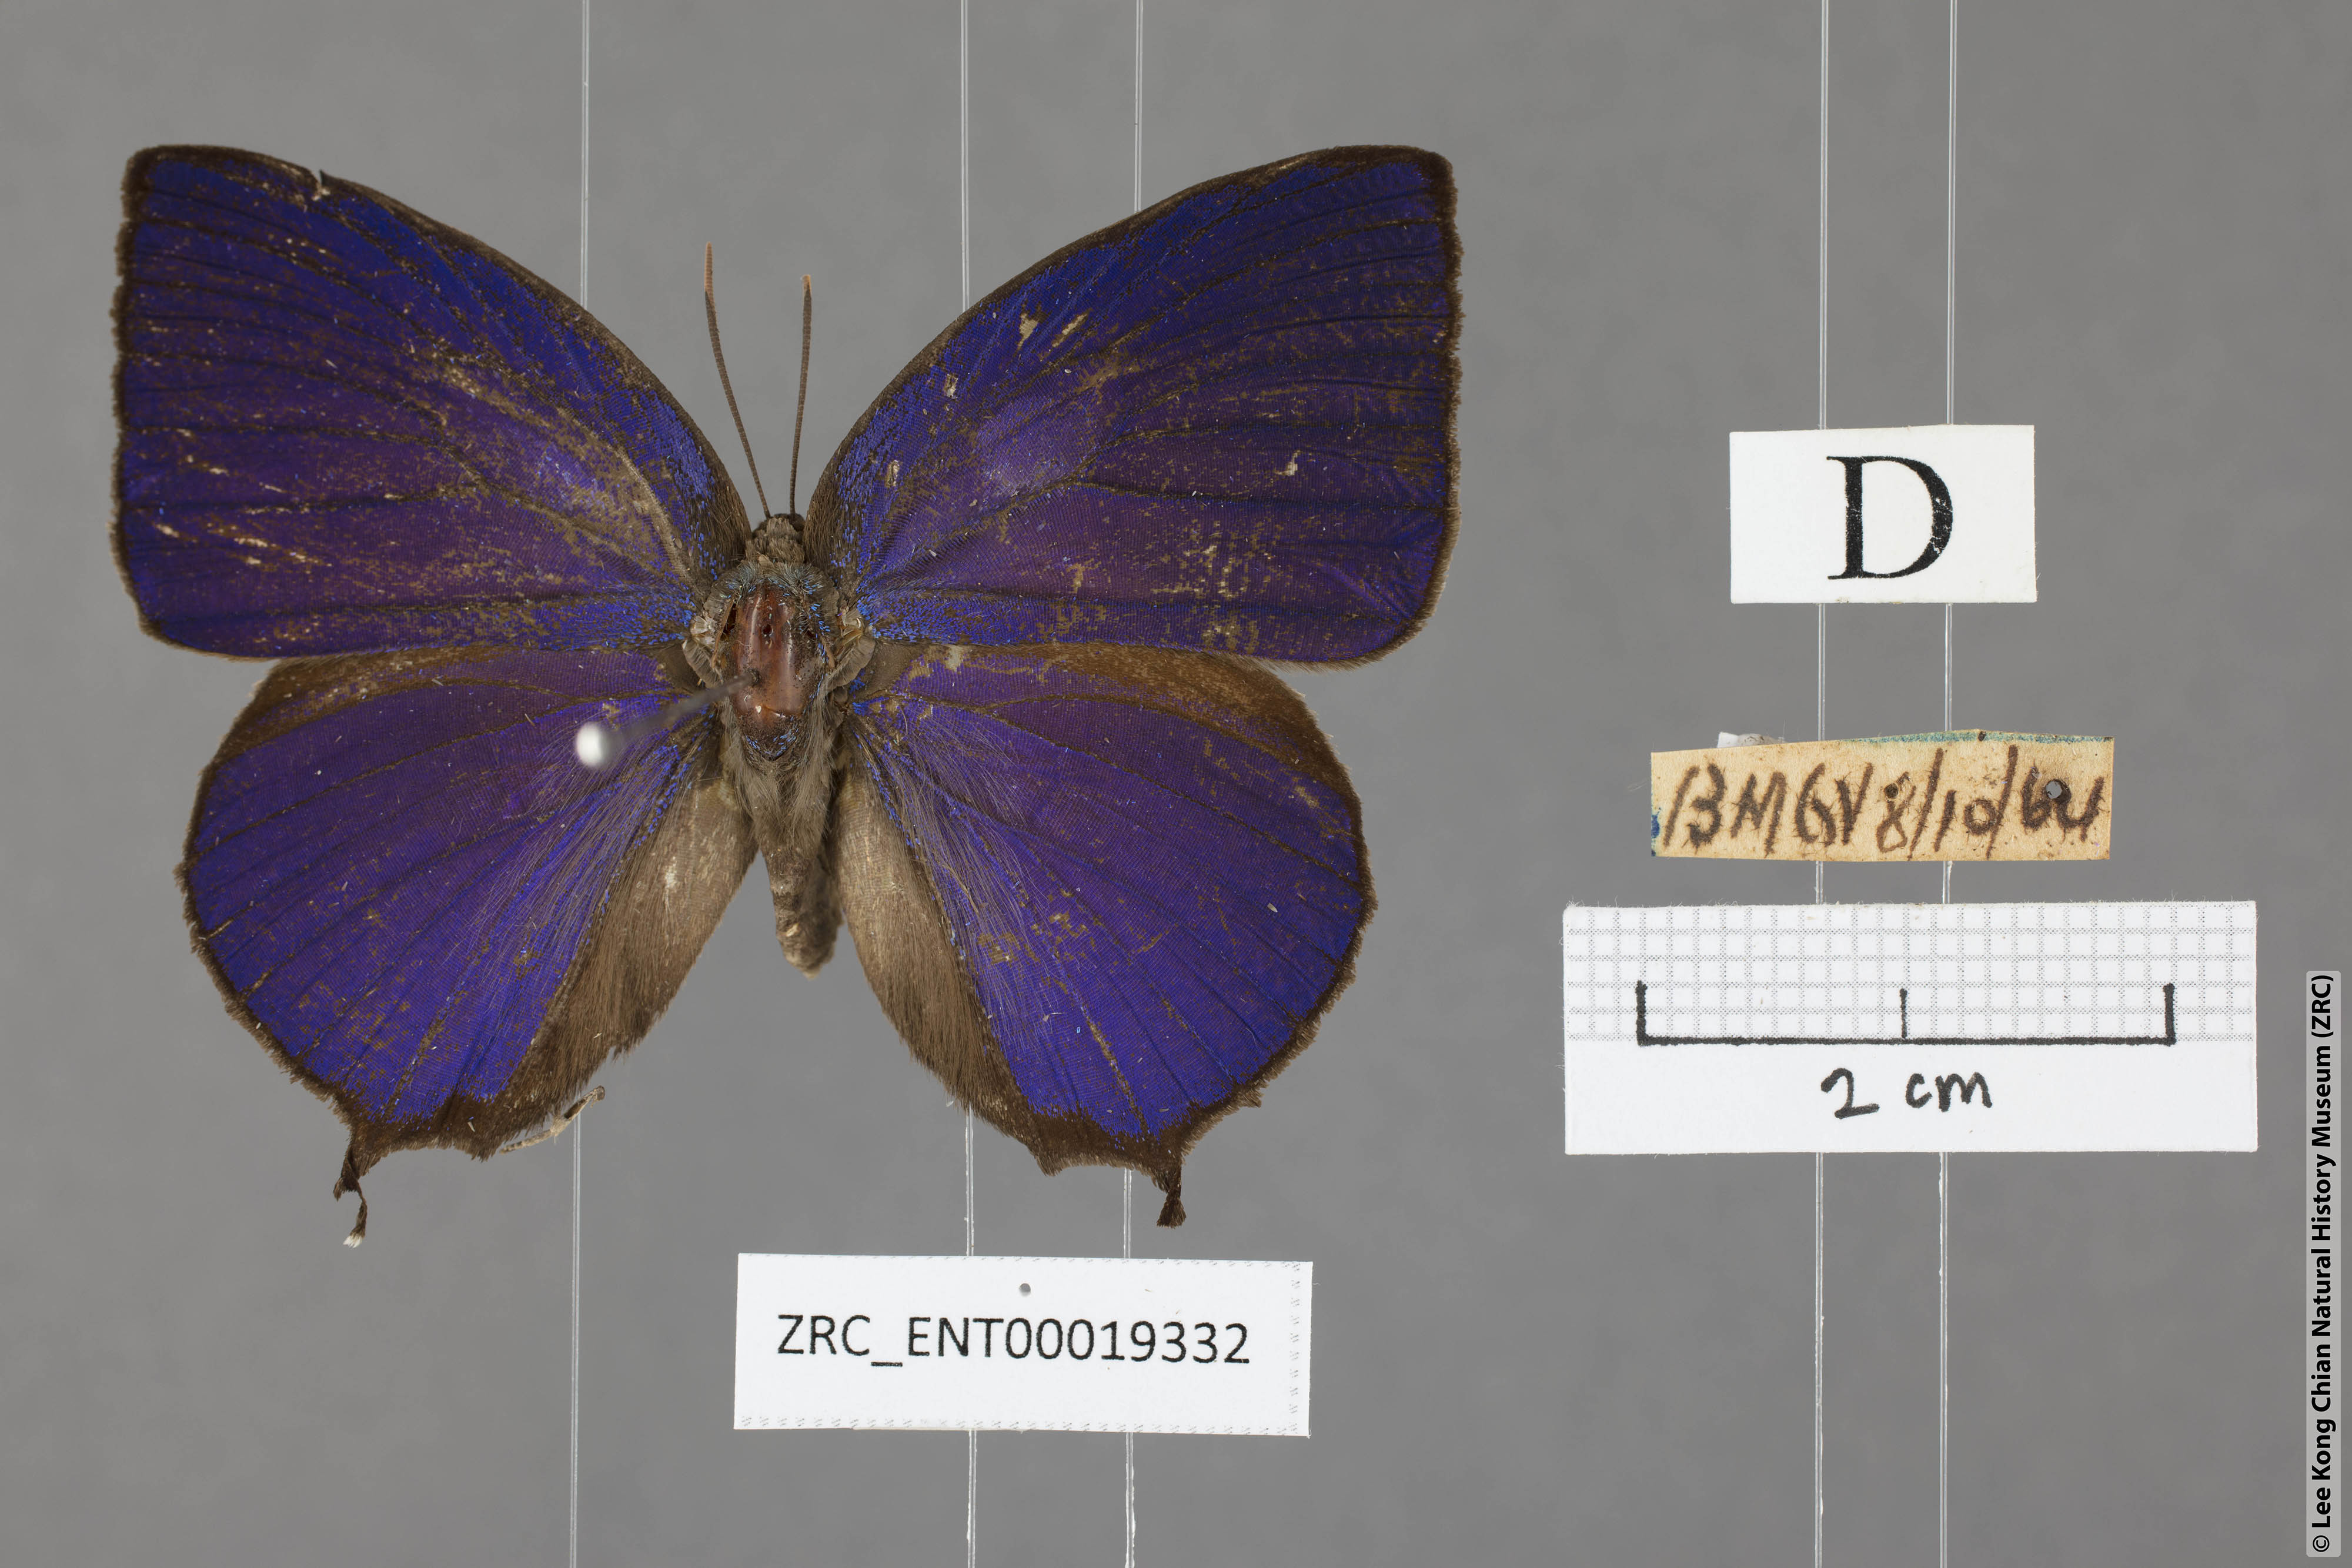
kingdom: Animalia
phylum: Arthropoda
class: Insecta
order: Lepidoptera
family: Lycaenidae
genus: Arhopala
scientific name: Arhopala centaurus
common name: Dull oak-blue
